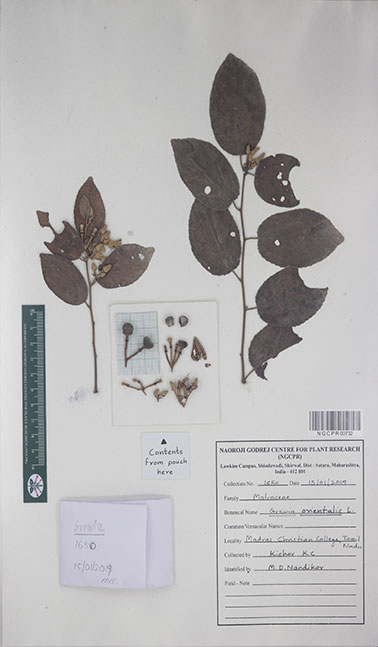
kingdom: Plantae
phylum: Tracheophyta
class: Magnoliopsida
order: Malvales
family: Malvaceae
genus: Grewia
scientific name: Grewia orientalis
